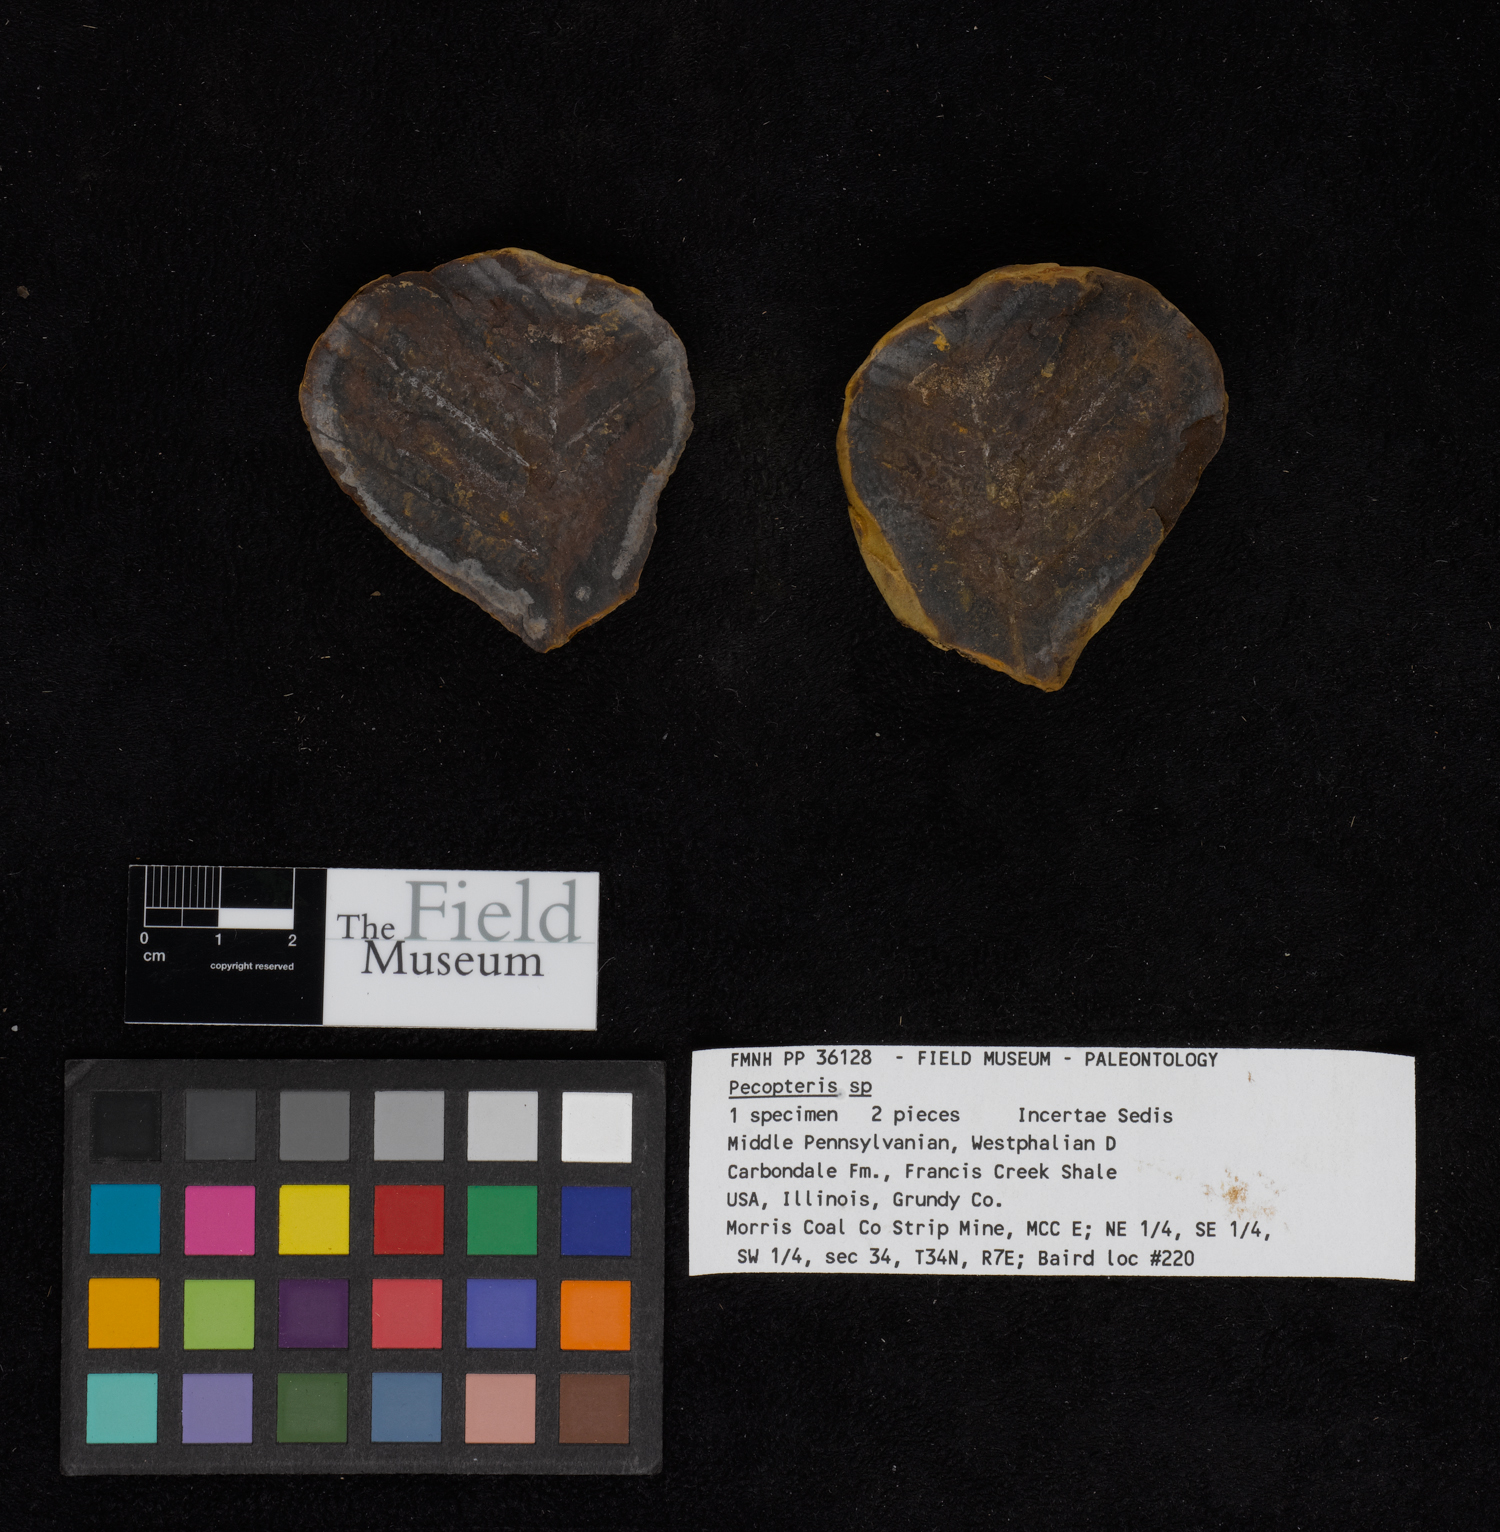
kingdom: Plantae
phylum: Tracheophyta
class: Polypodiopsida
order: Marattiales
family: Asterothecaceae
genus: Pecopteris
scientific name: Pecopteris
